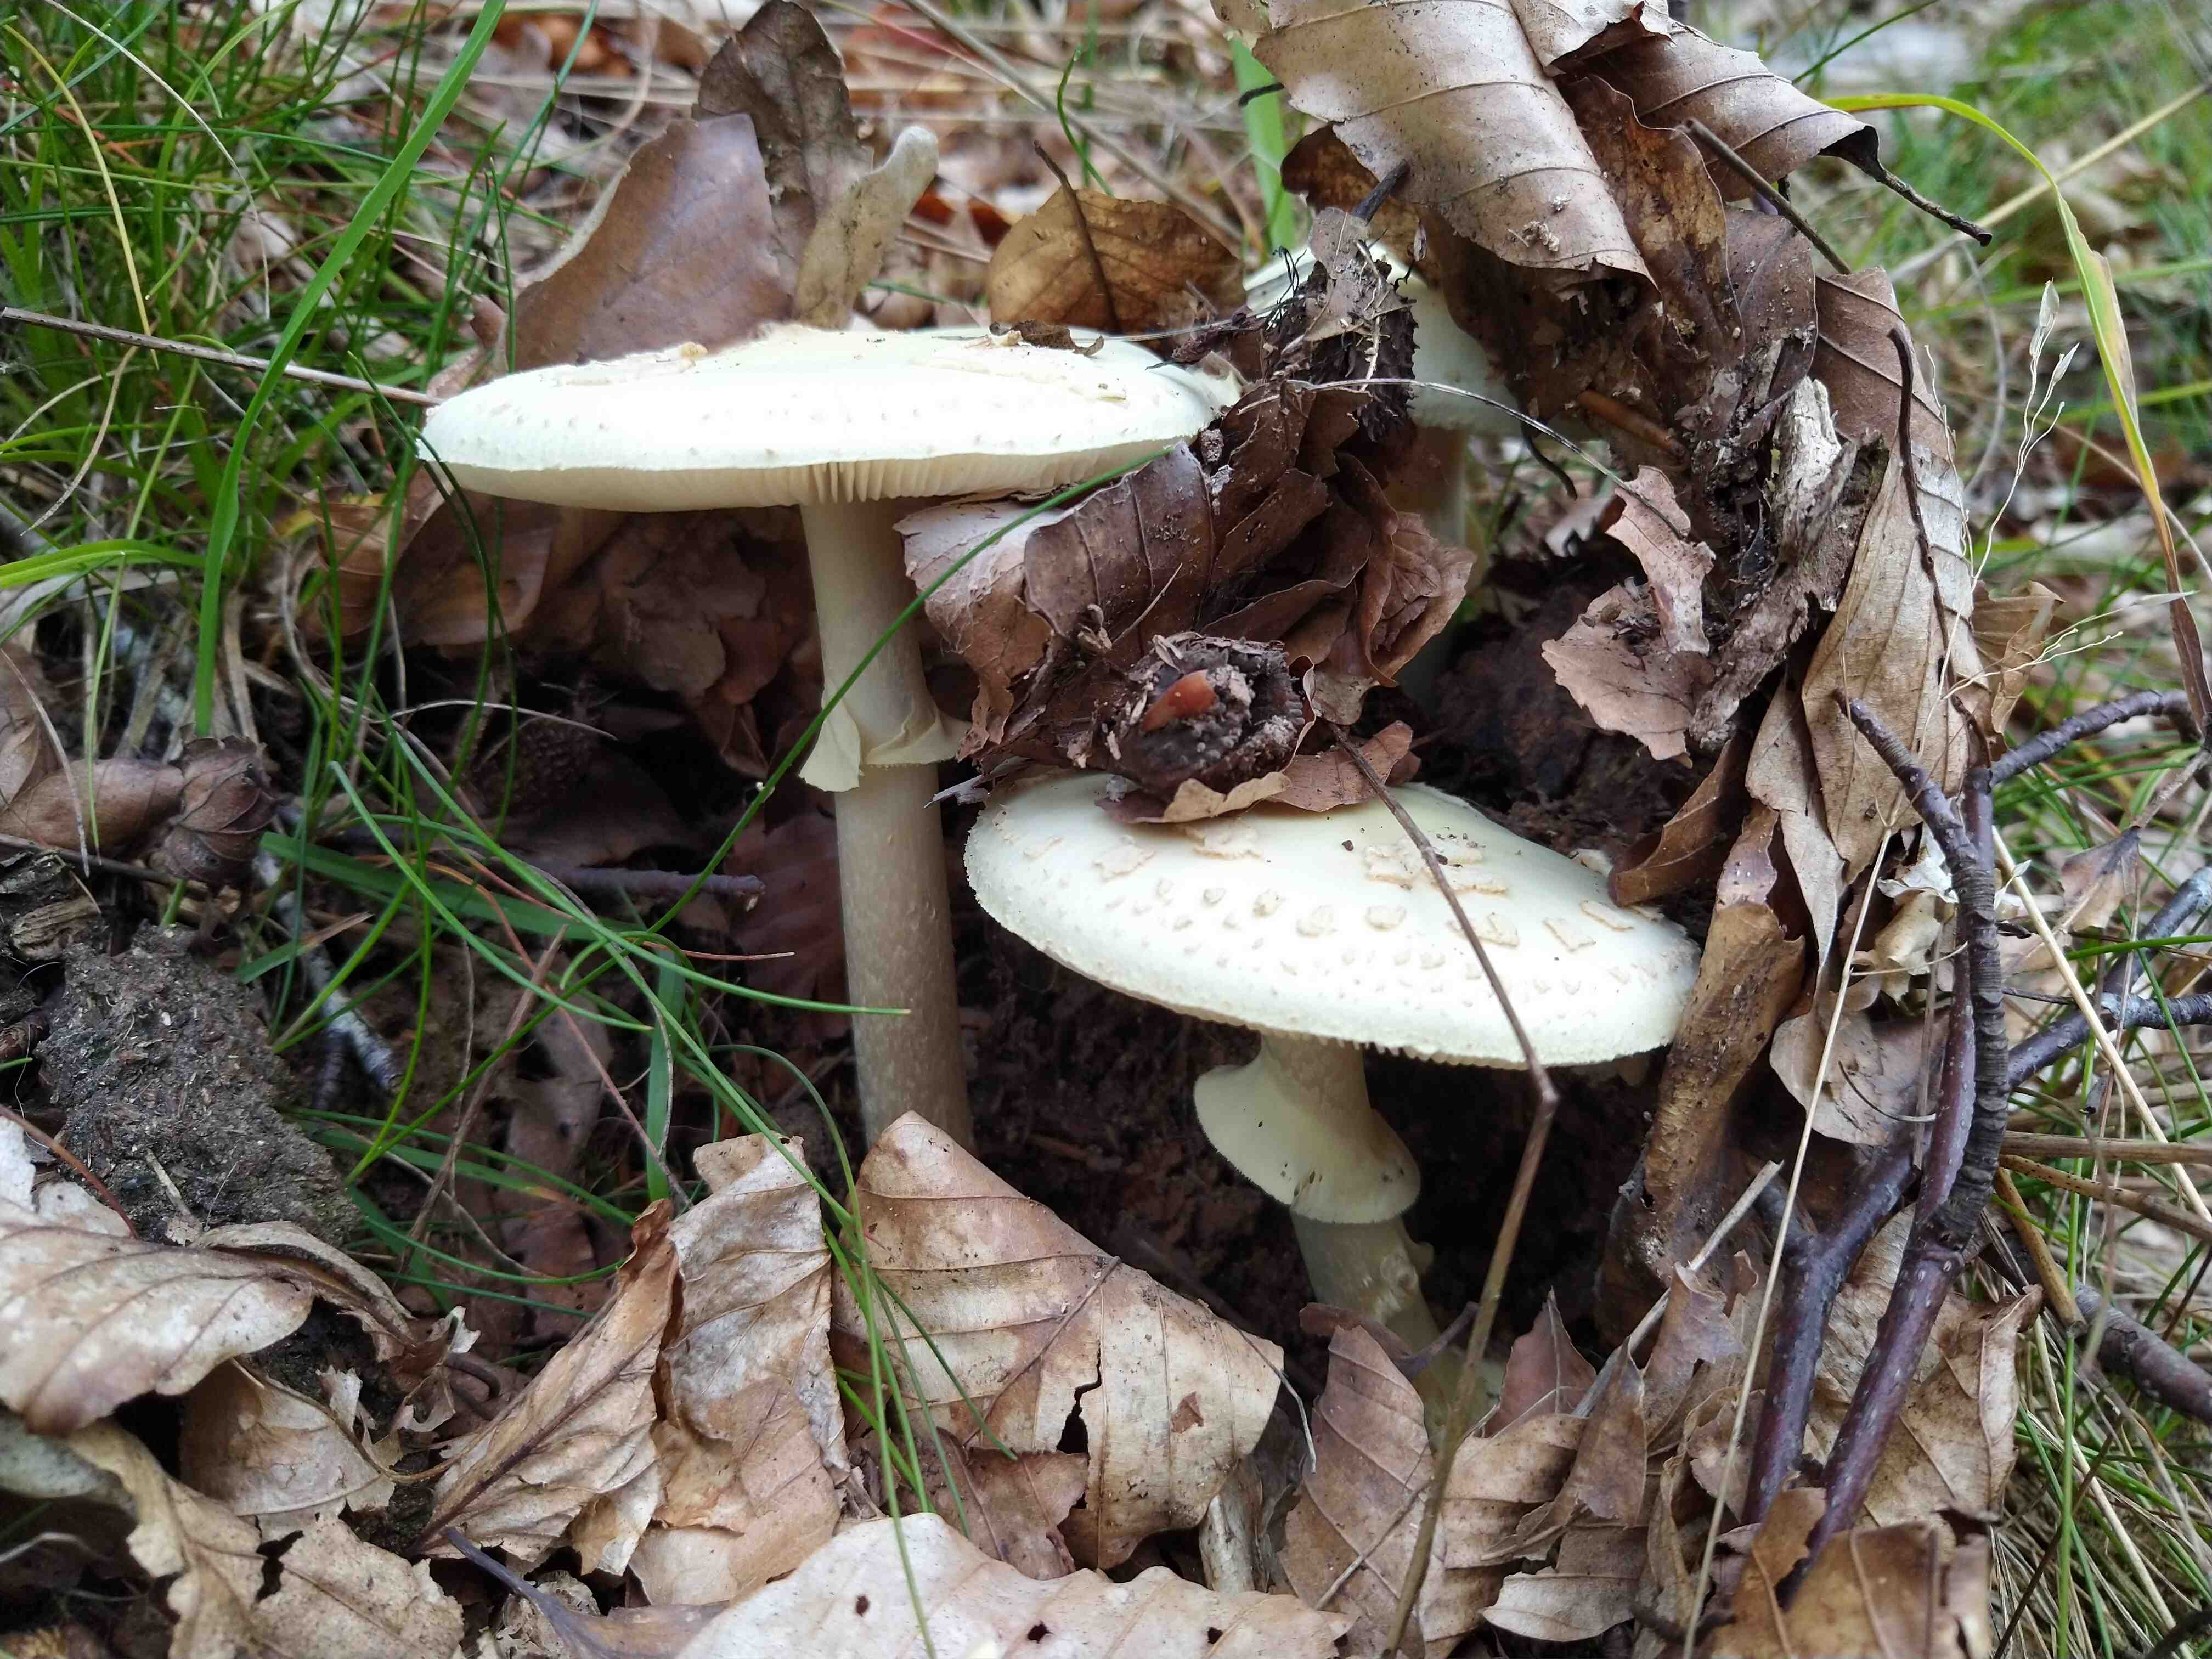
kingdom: Fungi
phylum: Basidiomycota
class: Agaricomycetes
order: Agaricales
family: Amanitaceae
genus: Amanita
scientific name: Amanita citrina
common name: kugleknoldet fluesvamp
